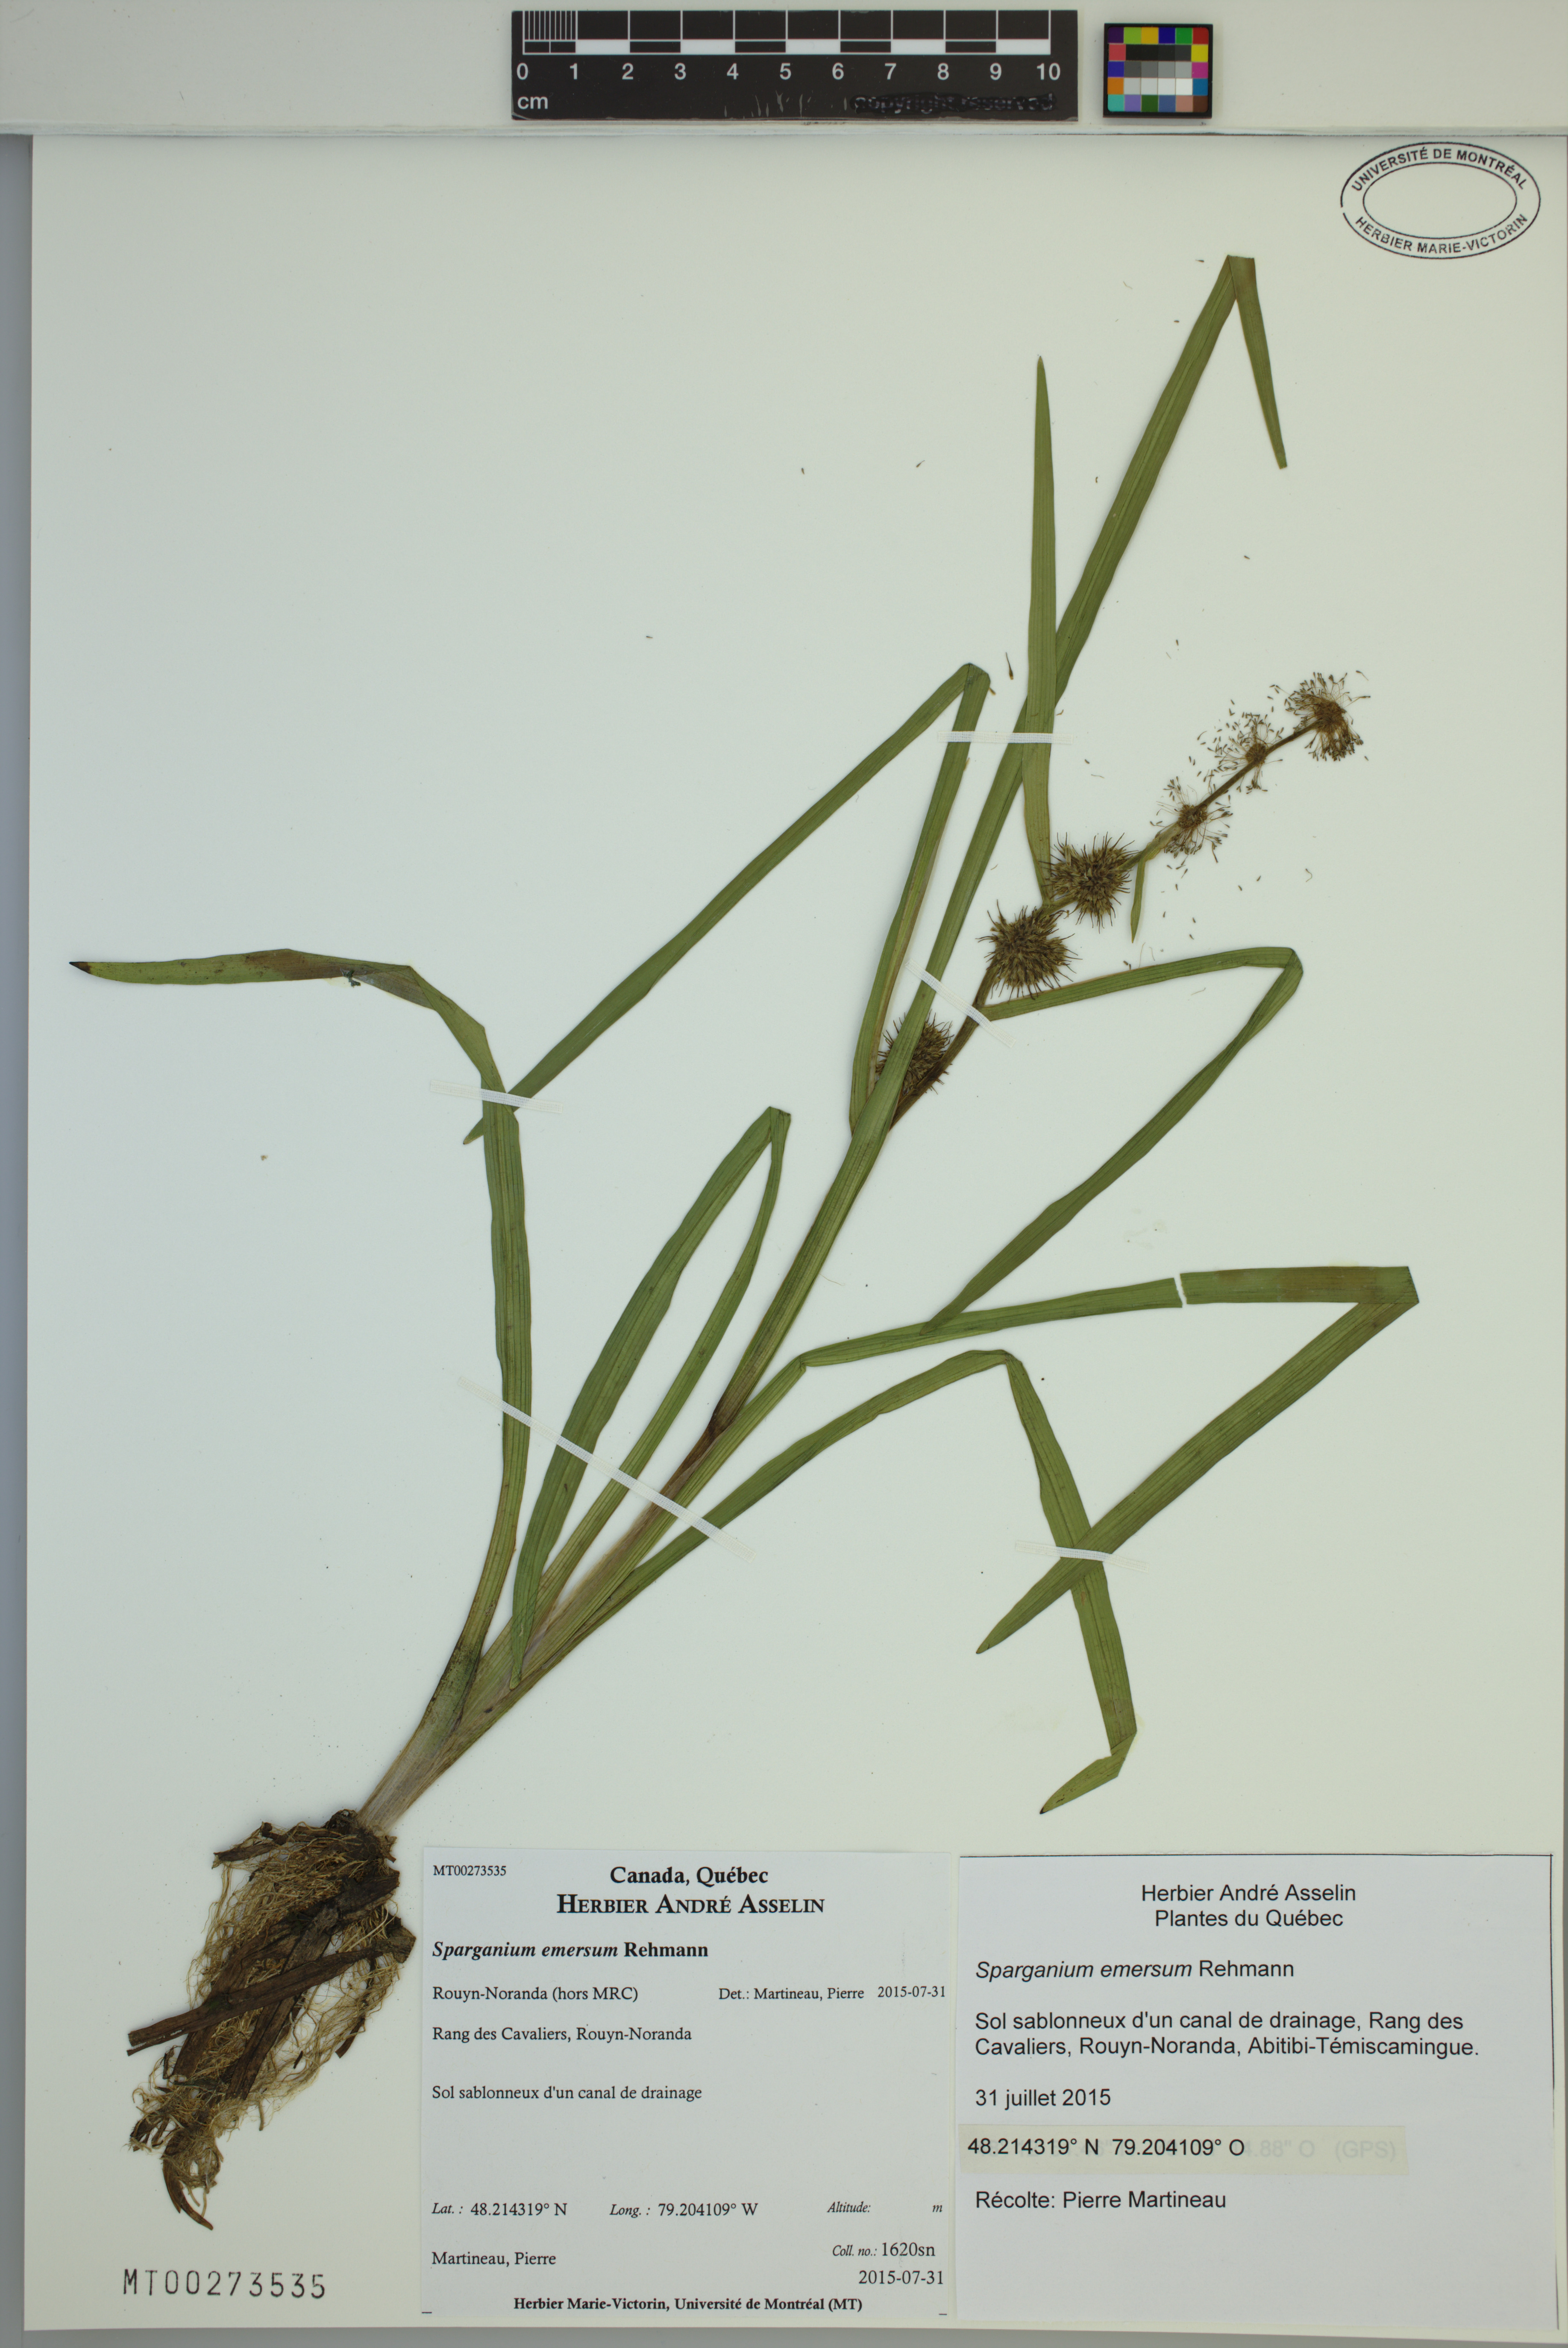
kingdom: Plantae
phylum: Tracheophyta
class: Liliopsida
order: Poales
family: Typhaceae
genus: Sparganium
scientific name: Sparganium emersum
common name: Unbranched bur-reed
